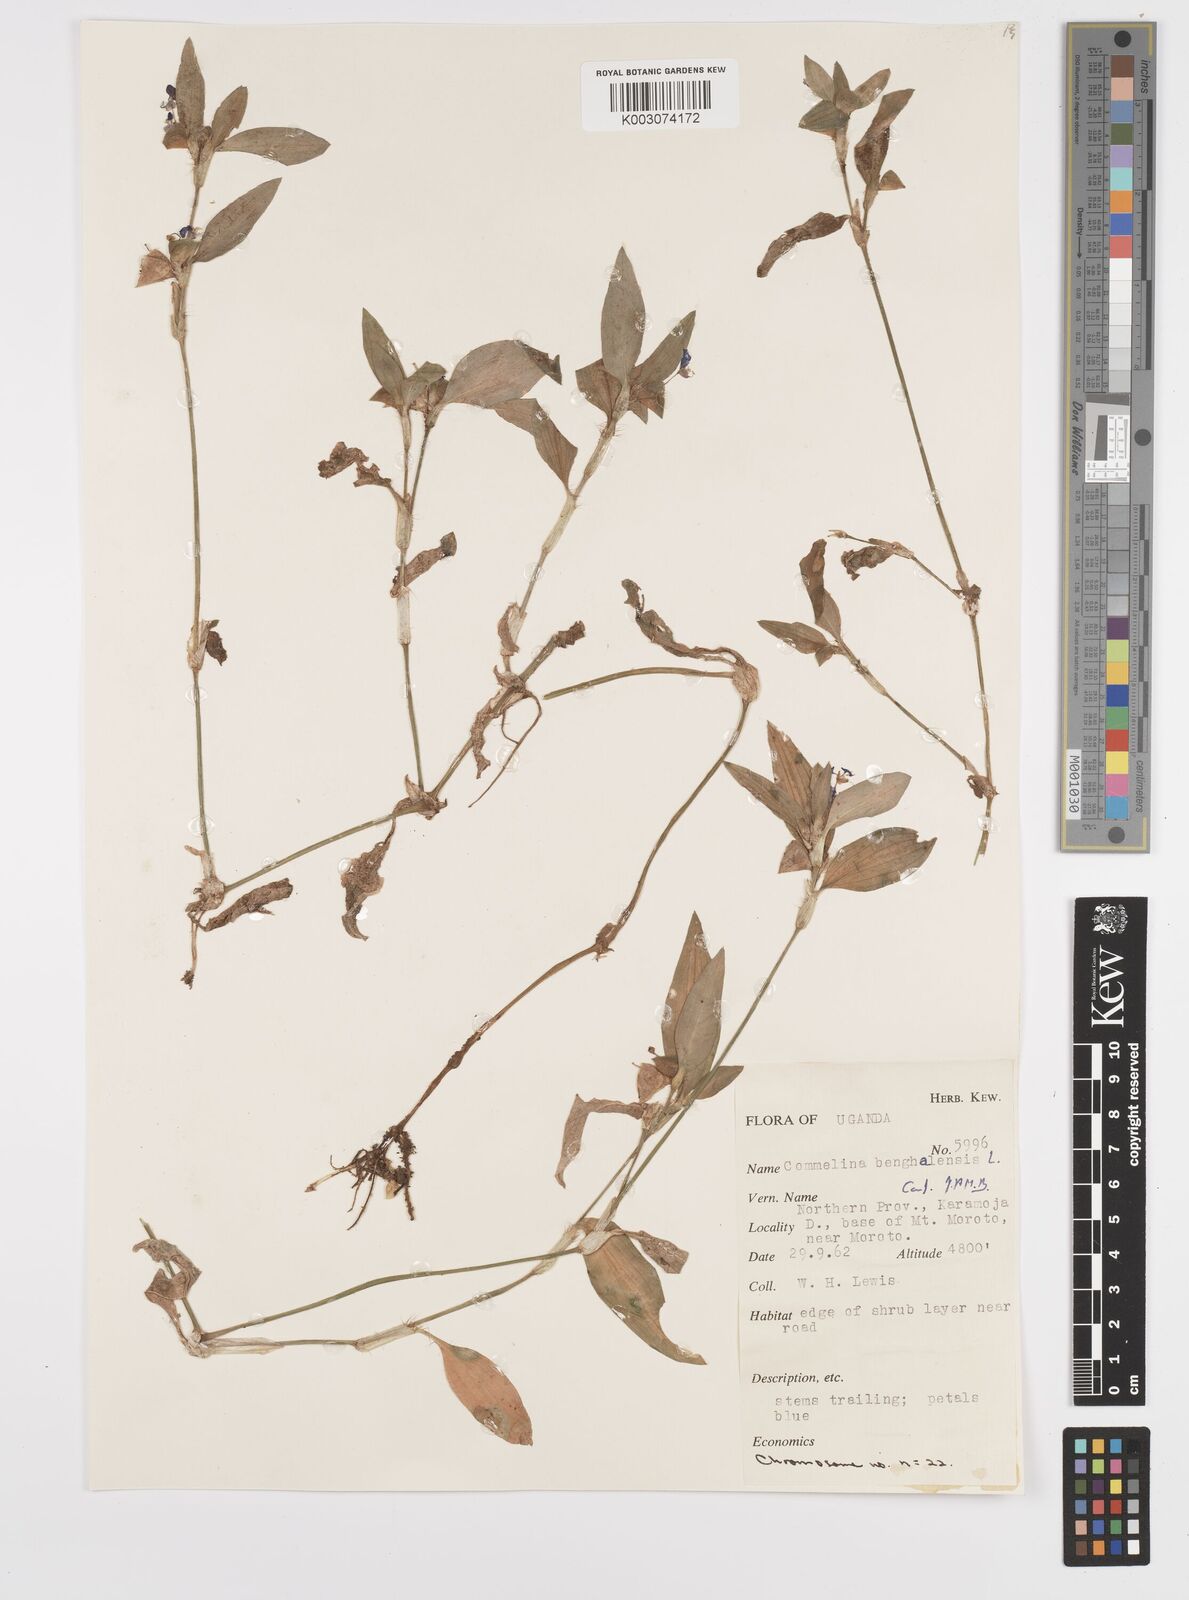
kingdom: Plantae
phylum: Tracheophyta
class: Liliopsida
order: Commelinales
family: Commelinaceae
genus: Commelina
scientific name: Commelina benghalensis
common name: Jio
